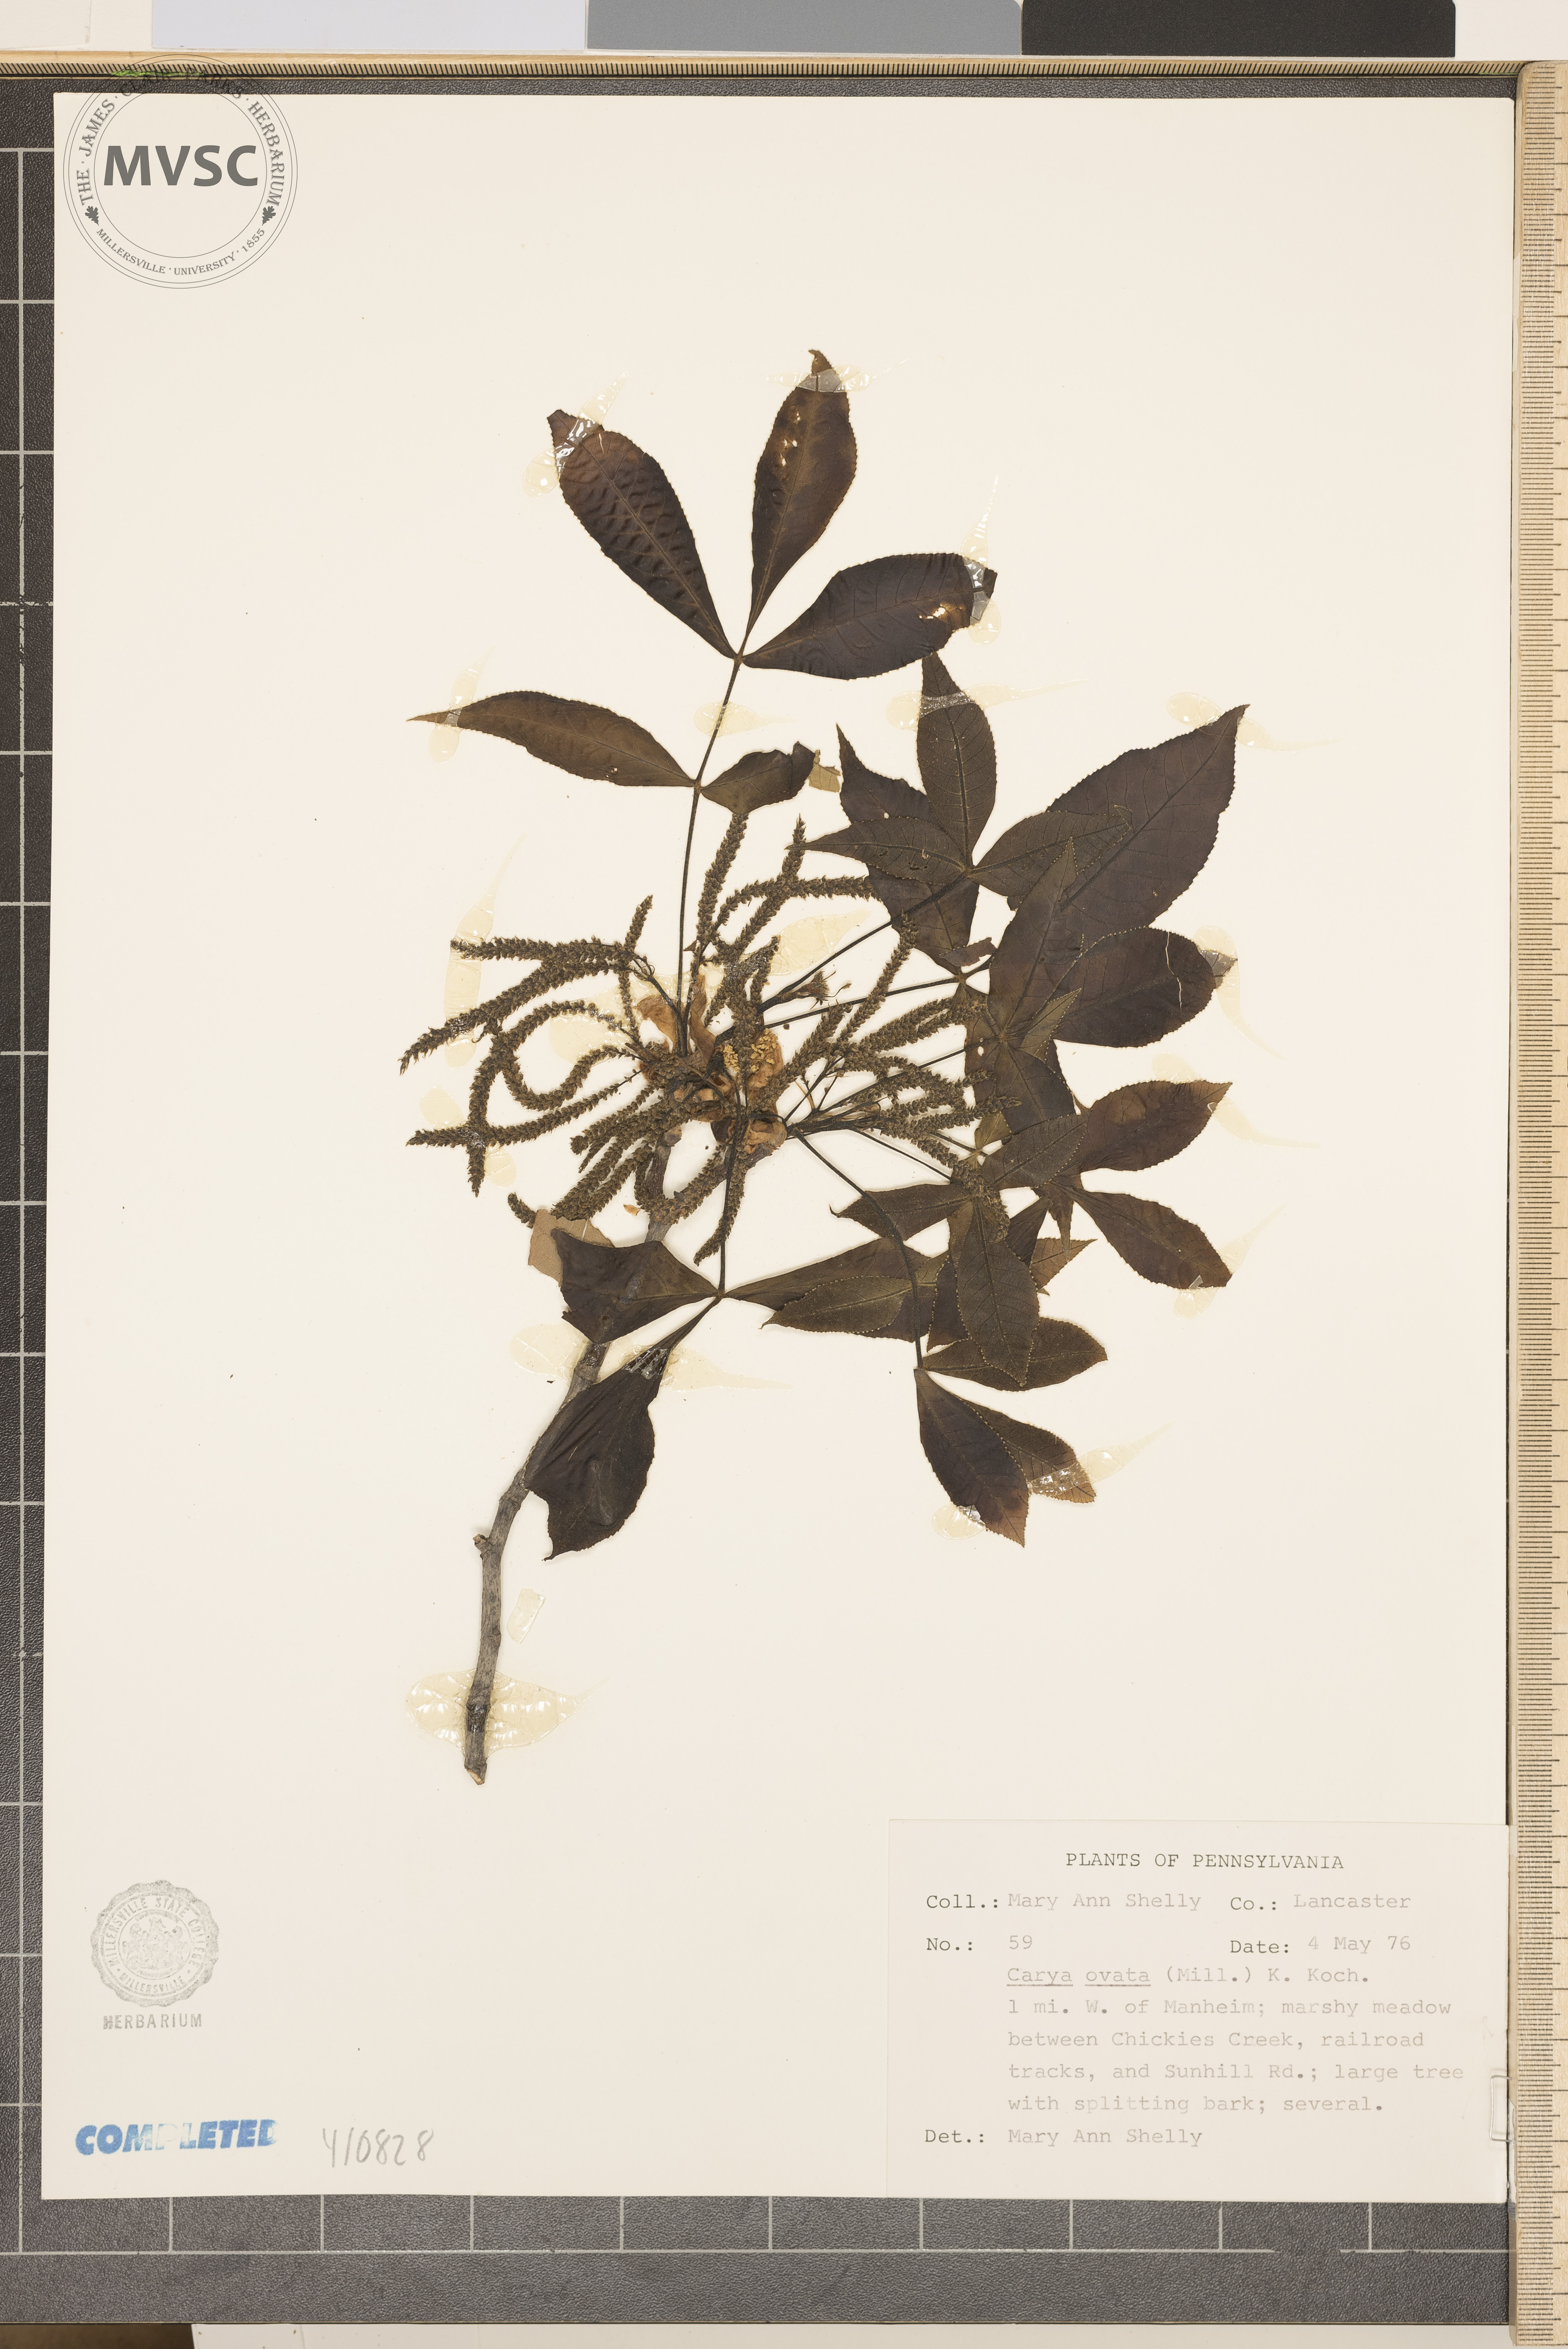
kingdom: Plantae
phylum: Tracheophyta
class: Magnoliopsida
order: Fagales
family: Juglandaceae
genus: Carya
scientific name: Carya ovata
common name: Shagbark hickory
